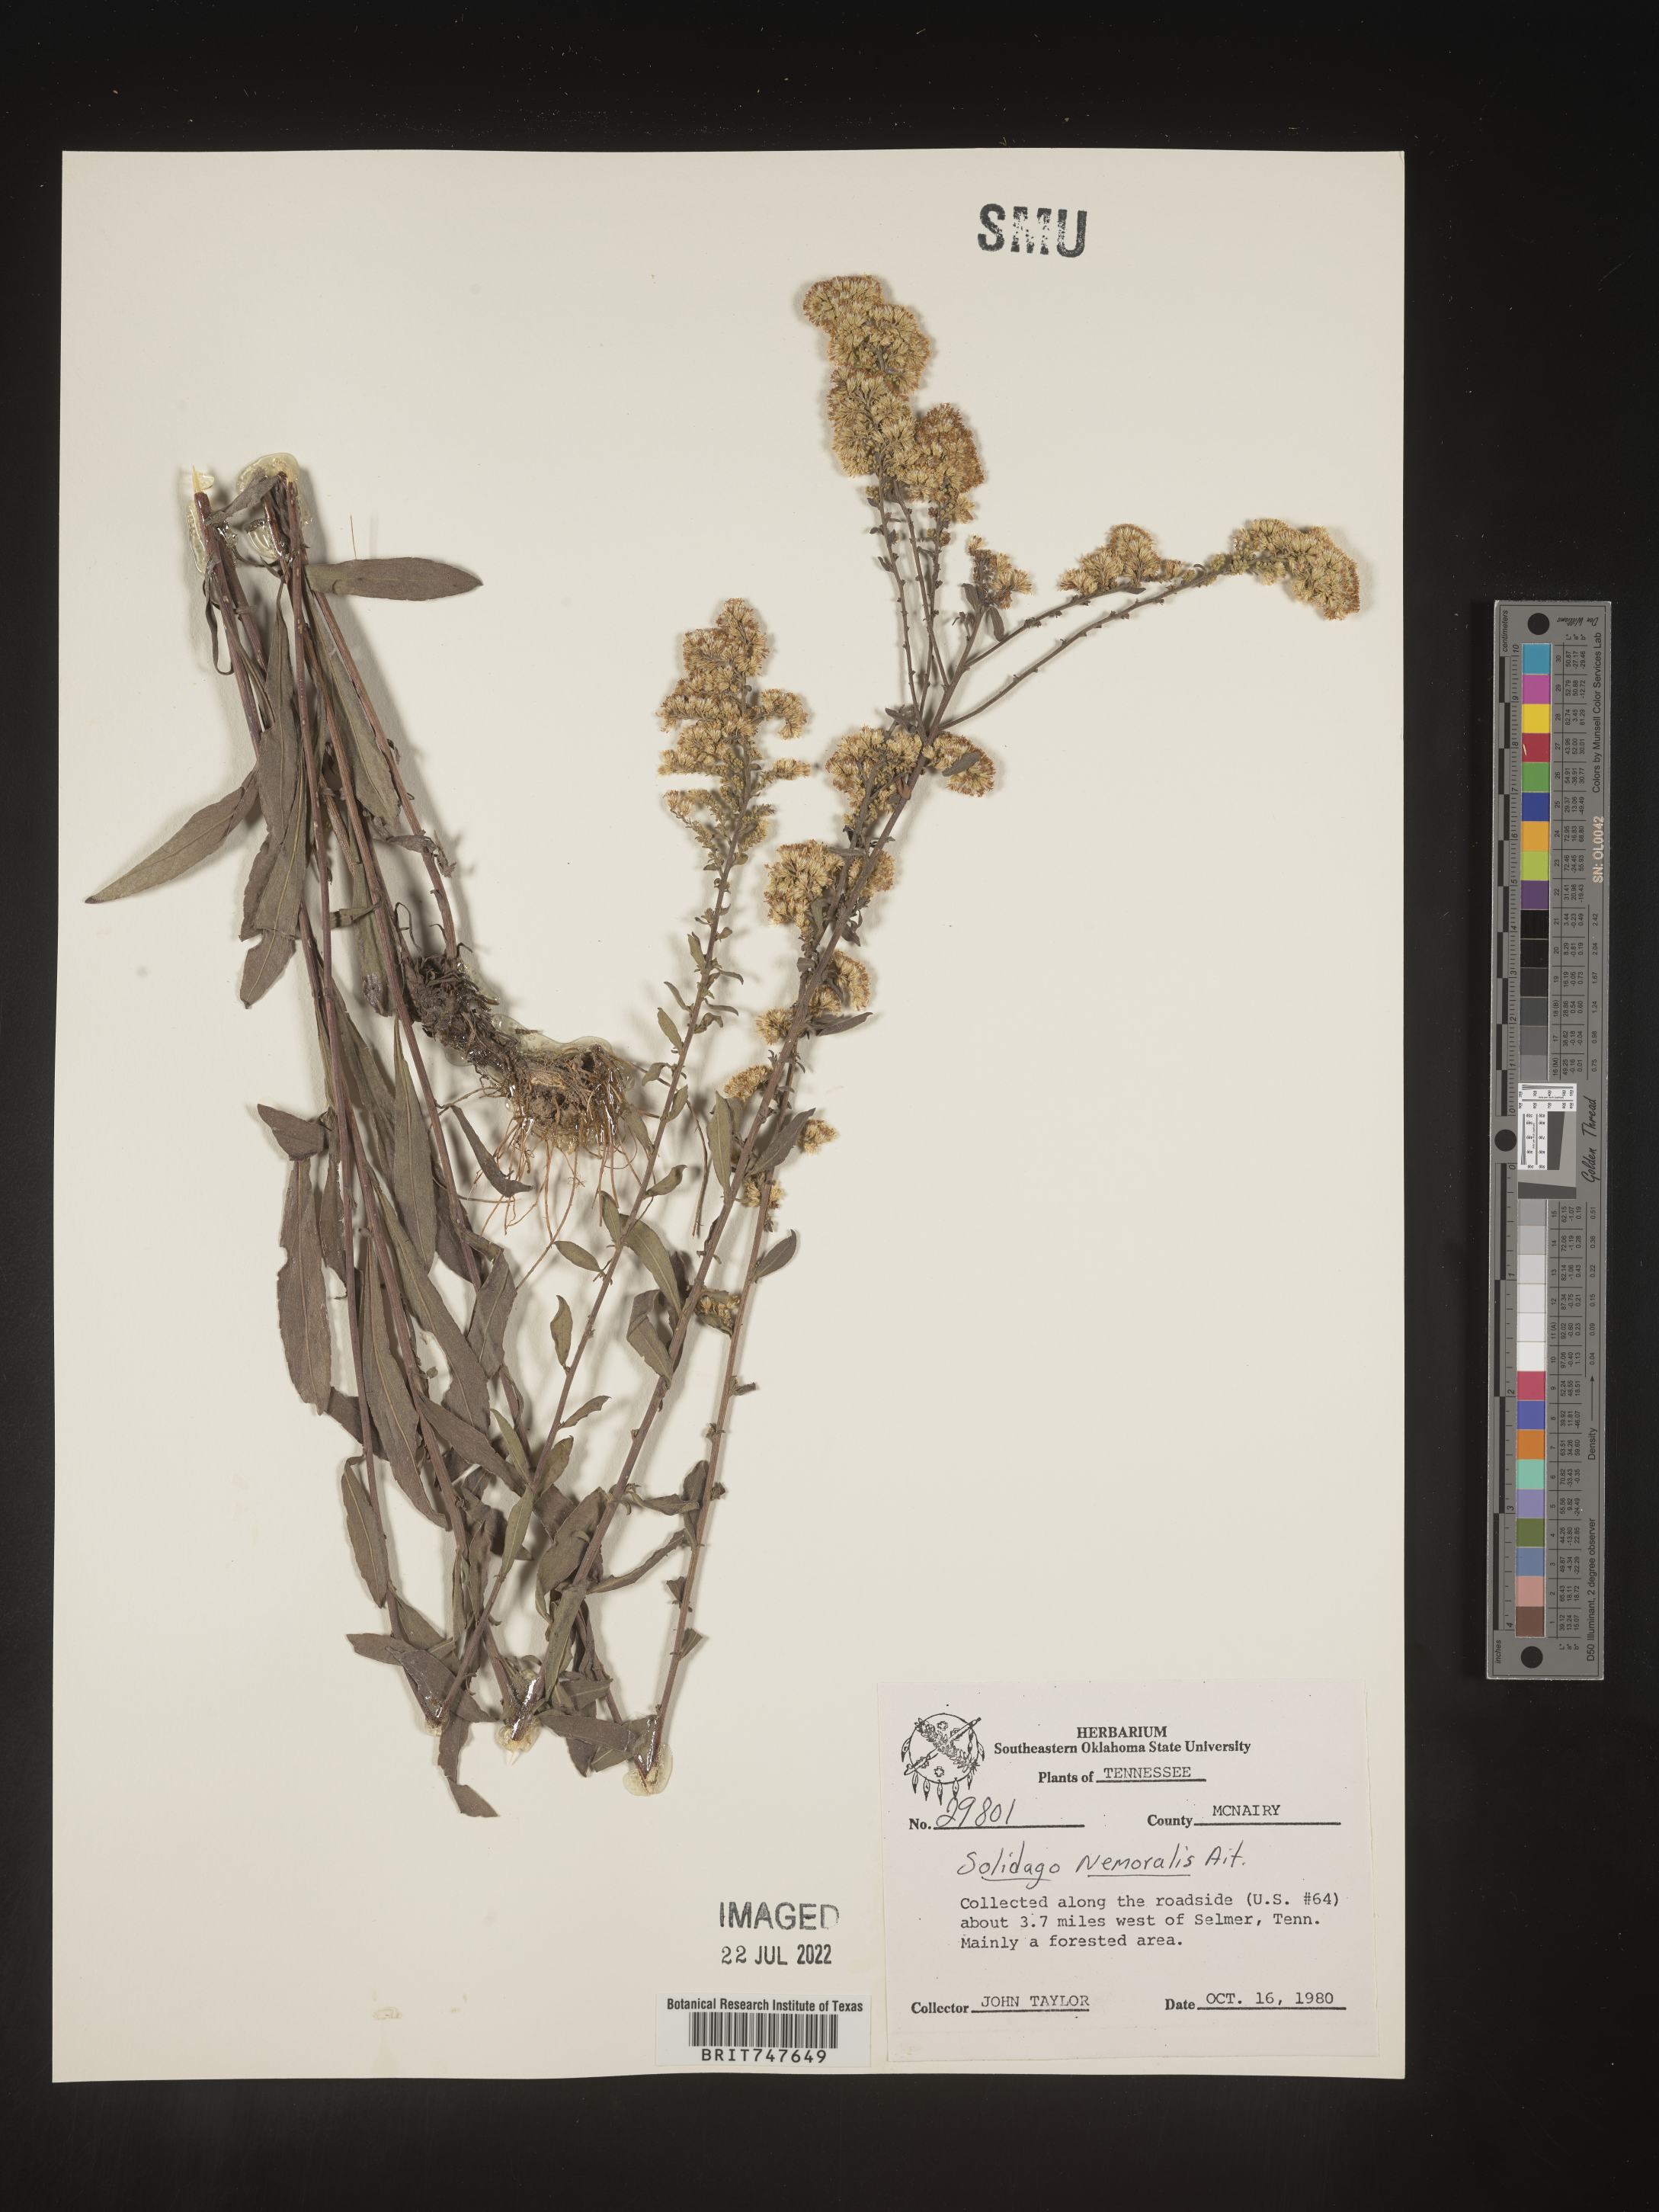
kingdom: Plantae
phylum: Tracheophyta
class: Magnoliopsida
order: Asterales
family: Asteraceae
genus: Solidago
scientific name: Solidago nemoralis
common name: Grey goldenrod
